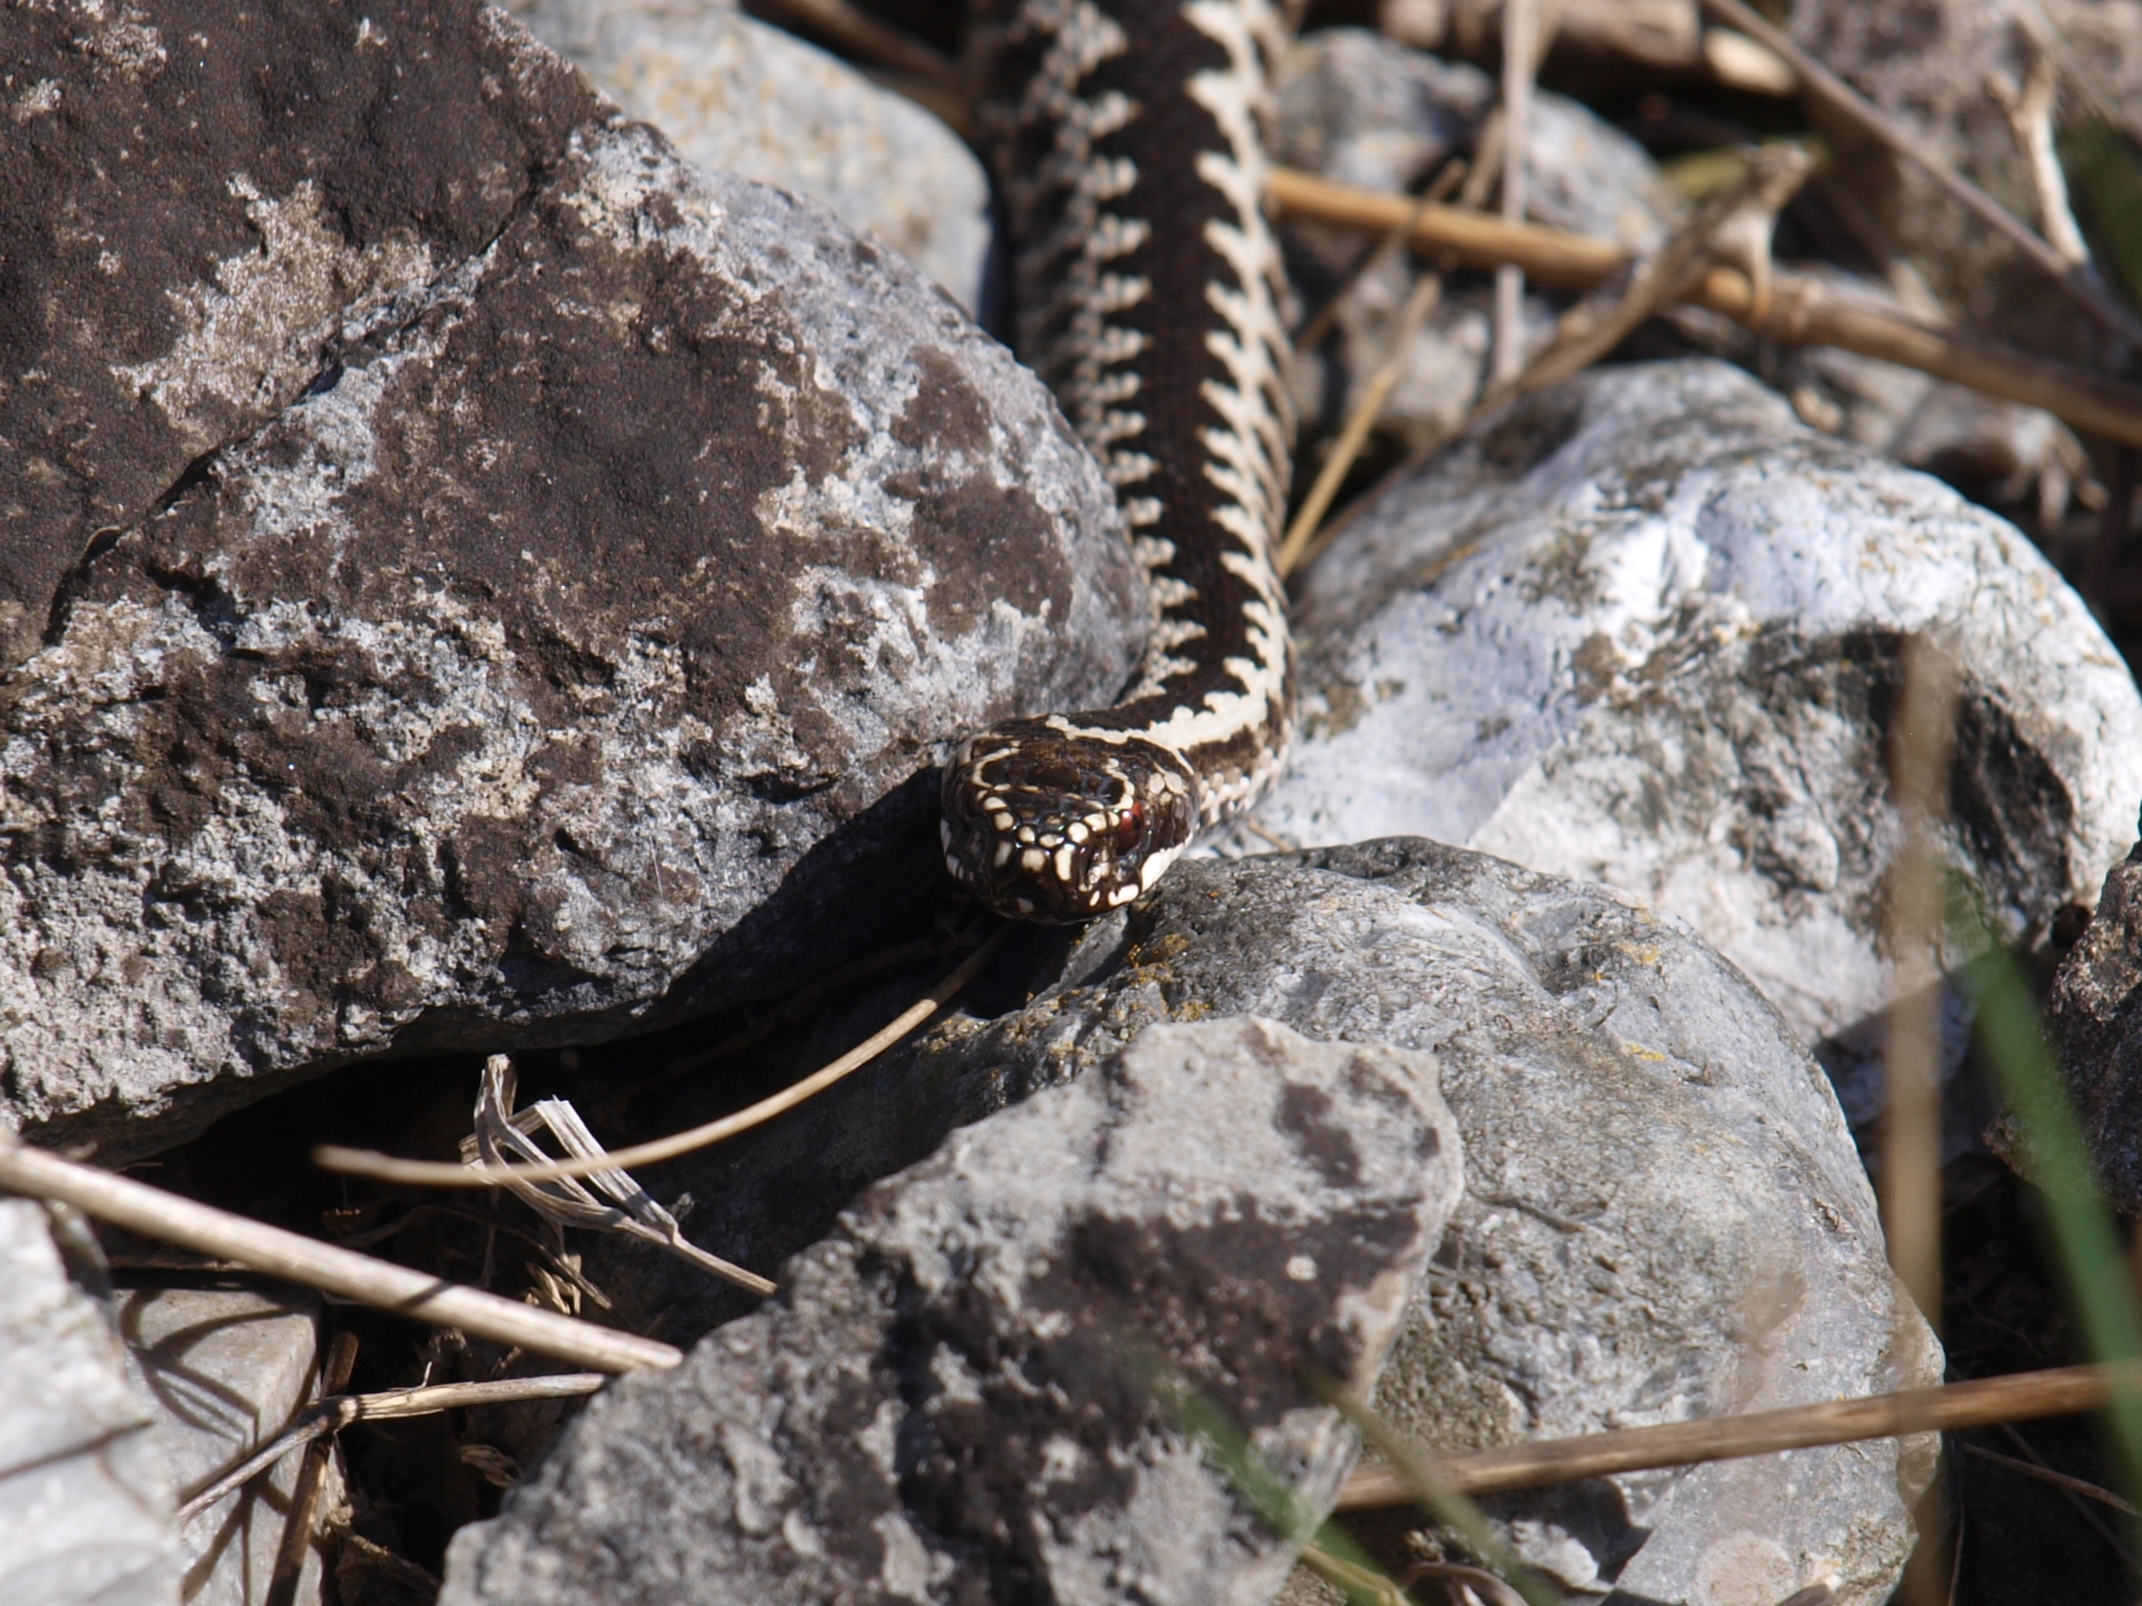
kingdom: Animalia
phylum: Chordata
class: Squamata
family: Viperidae
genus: Vipera
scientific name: Vipera berus
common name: Hugorm
